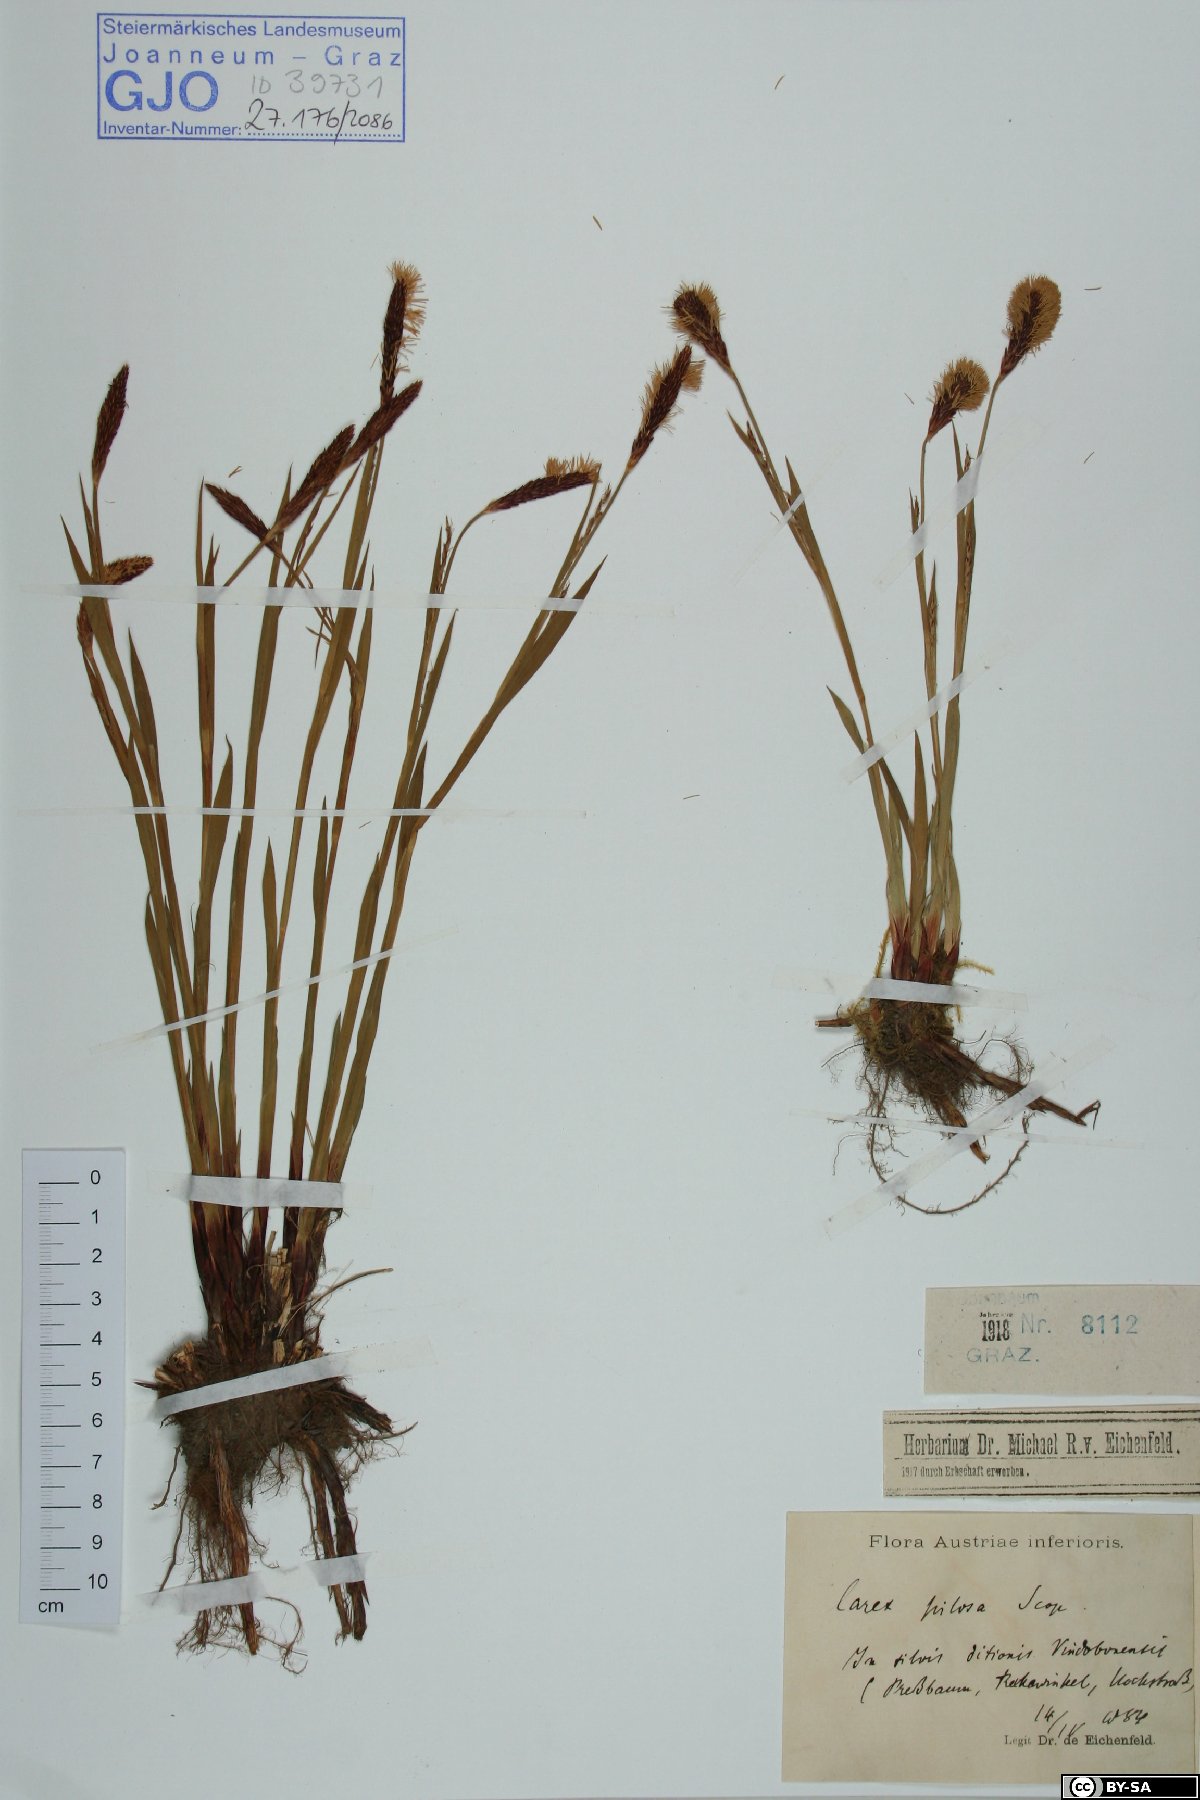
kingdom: Plantae
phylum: Tracheophyta
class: Liliopsida
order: Poales
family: Cyperaceae
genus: Carex
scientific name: Carex pilosa
